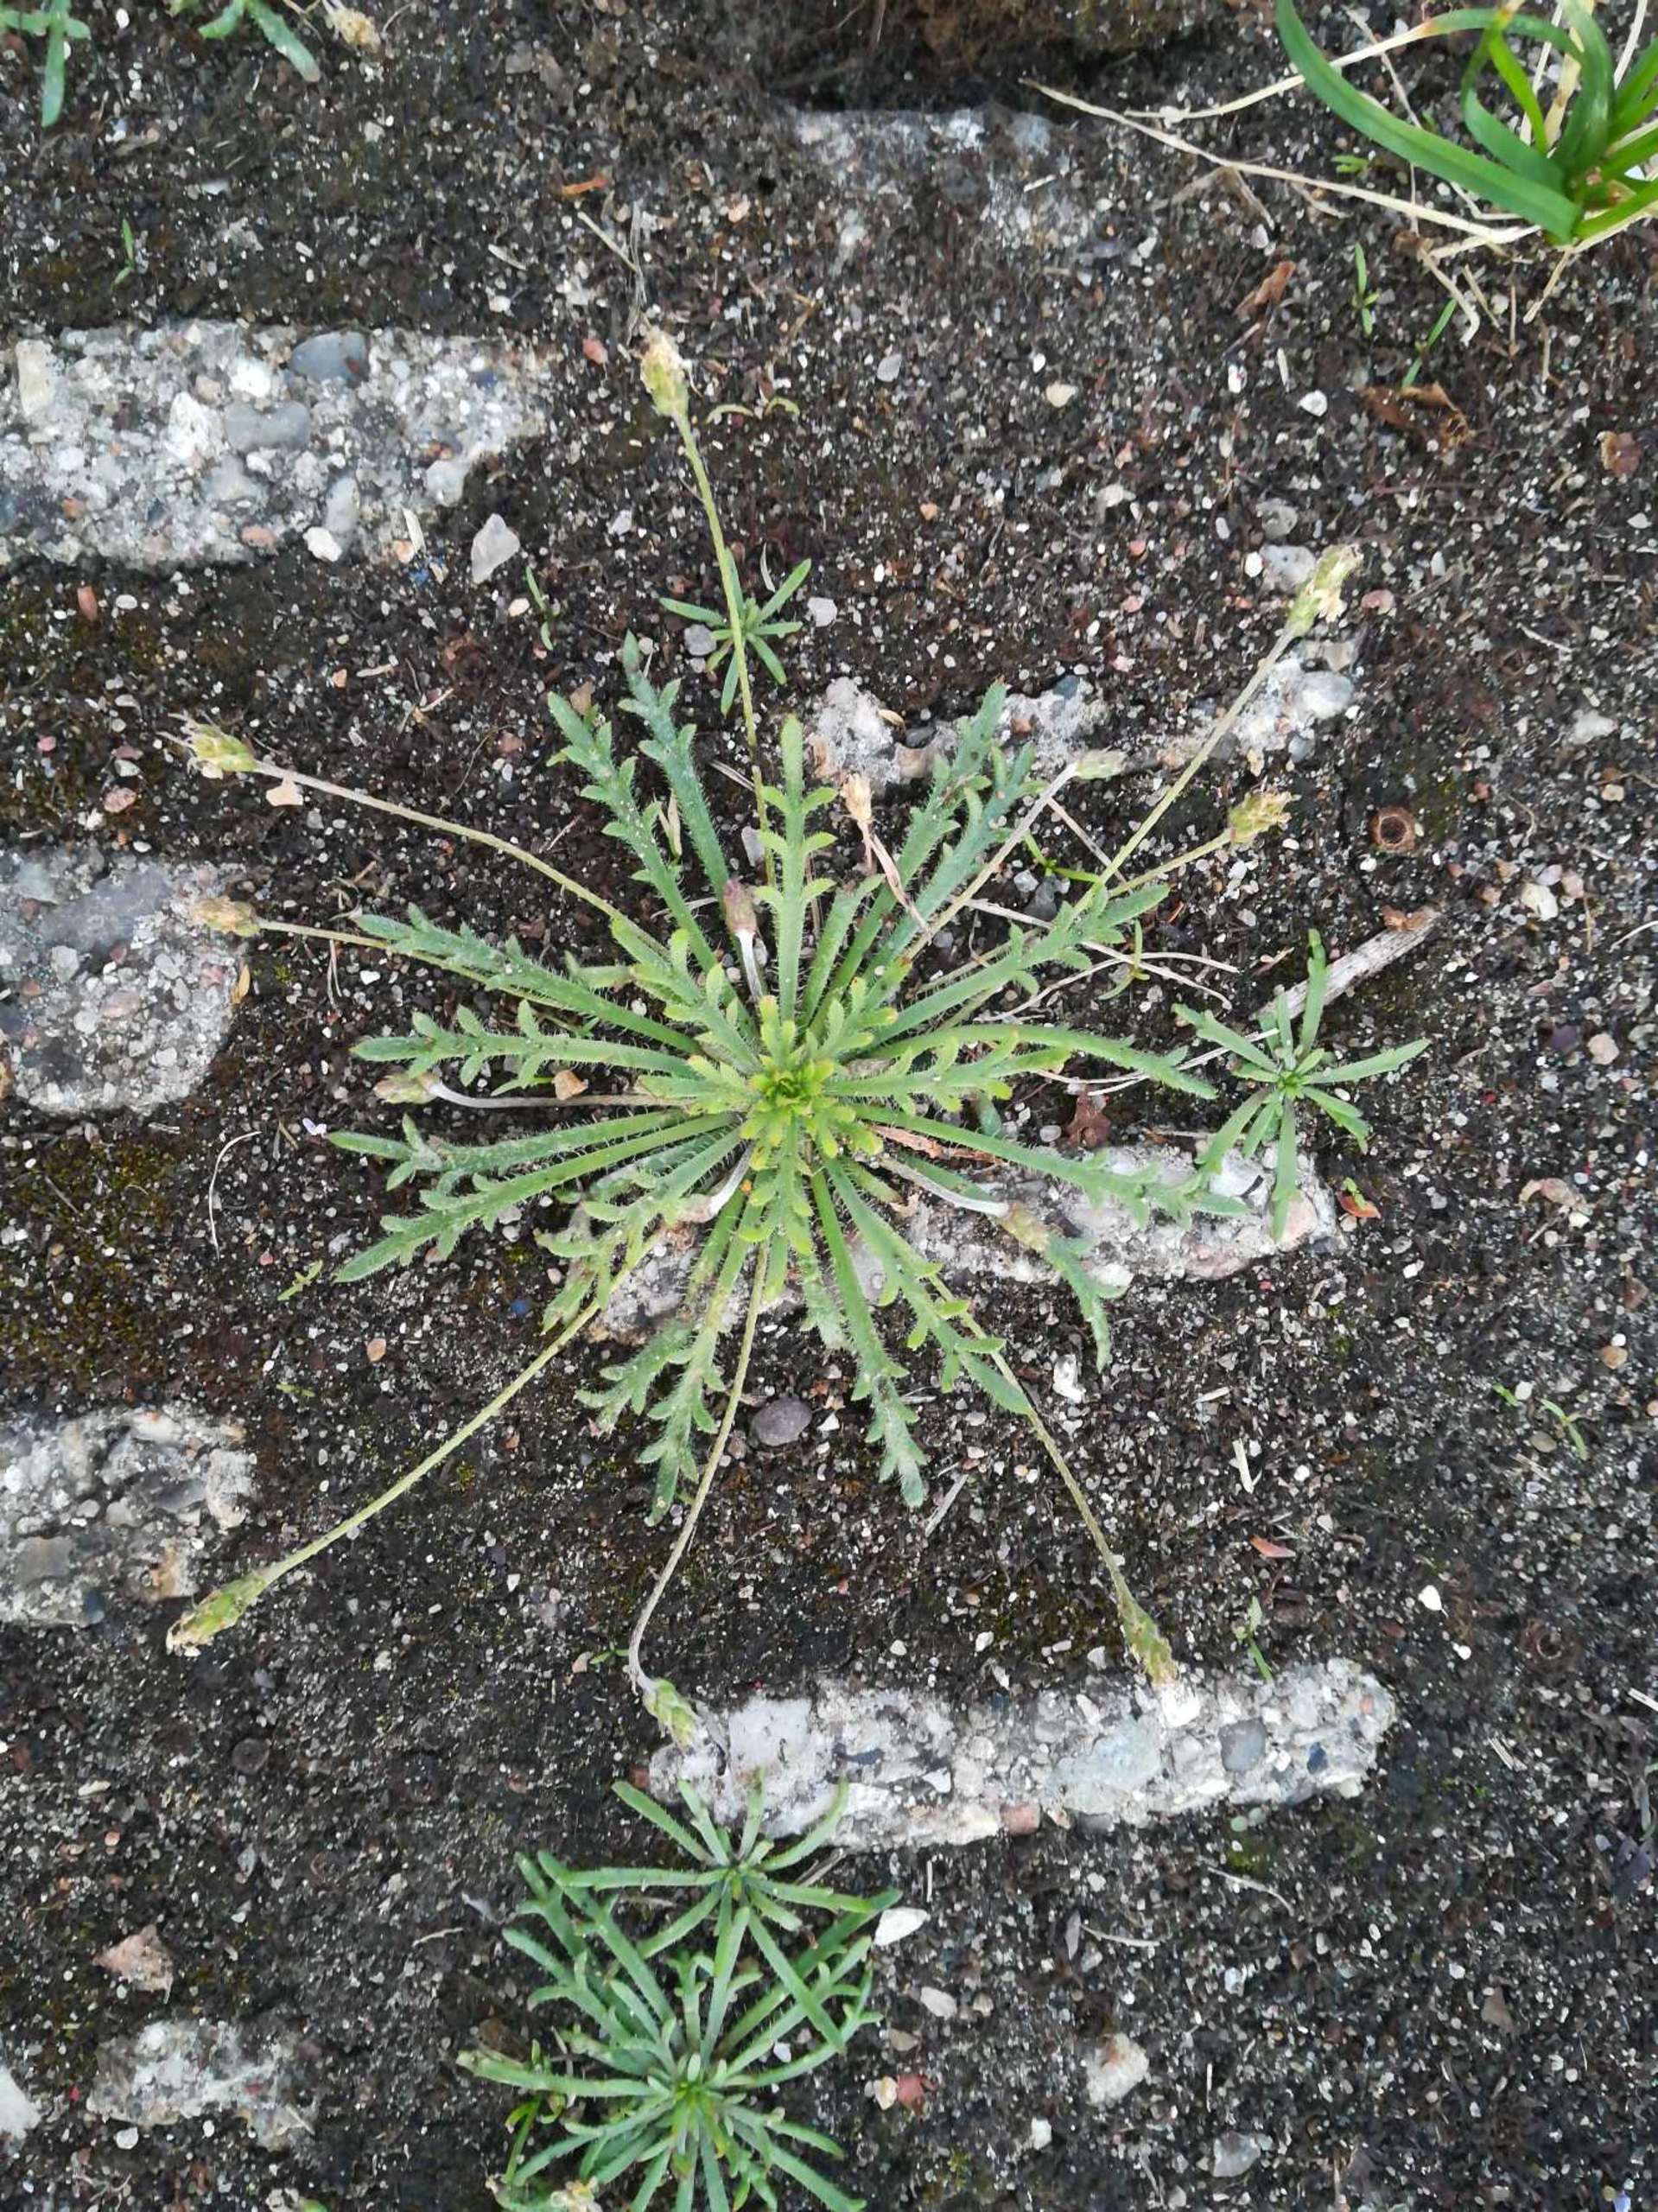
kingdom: Plantae
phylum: Tracheophyta
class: Magnoliopsida
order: Lamiales
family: Plantaginaceae
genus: Plantago
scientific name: Plantago coronopus
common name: Fliget vejbred
